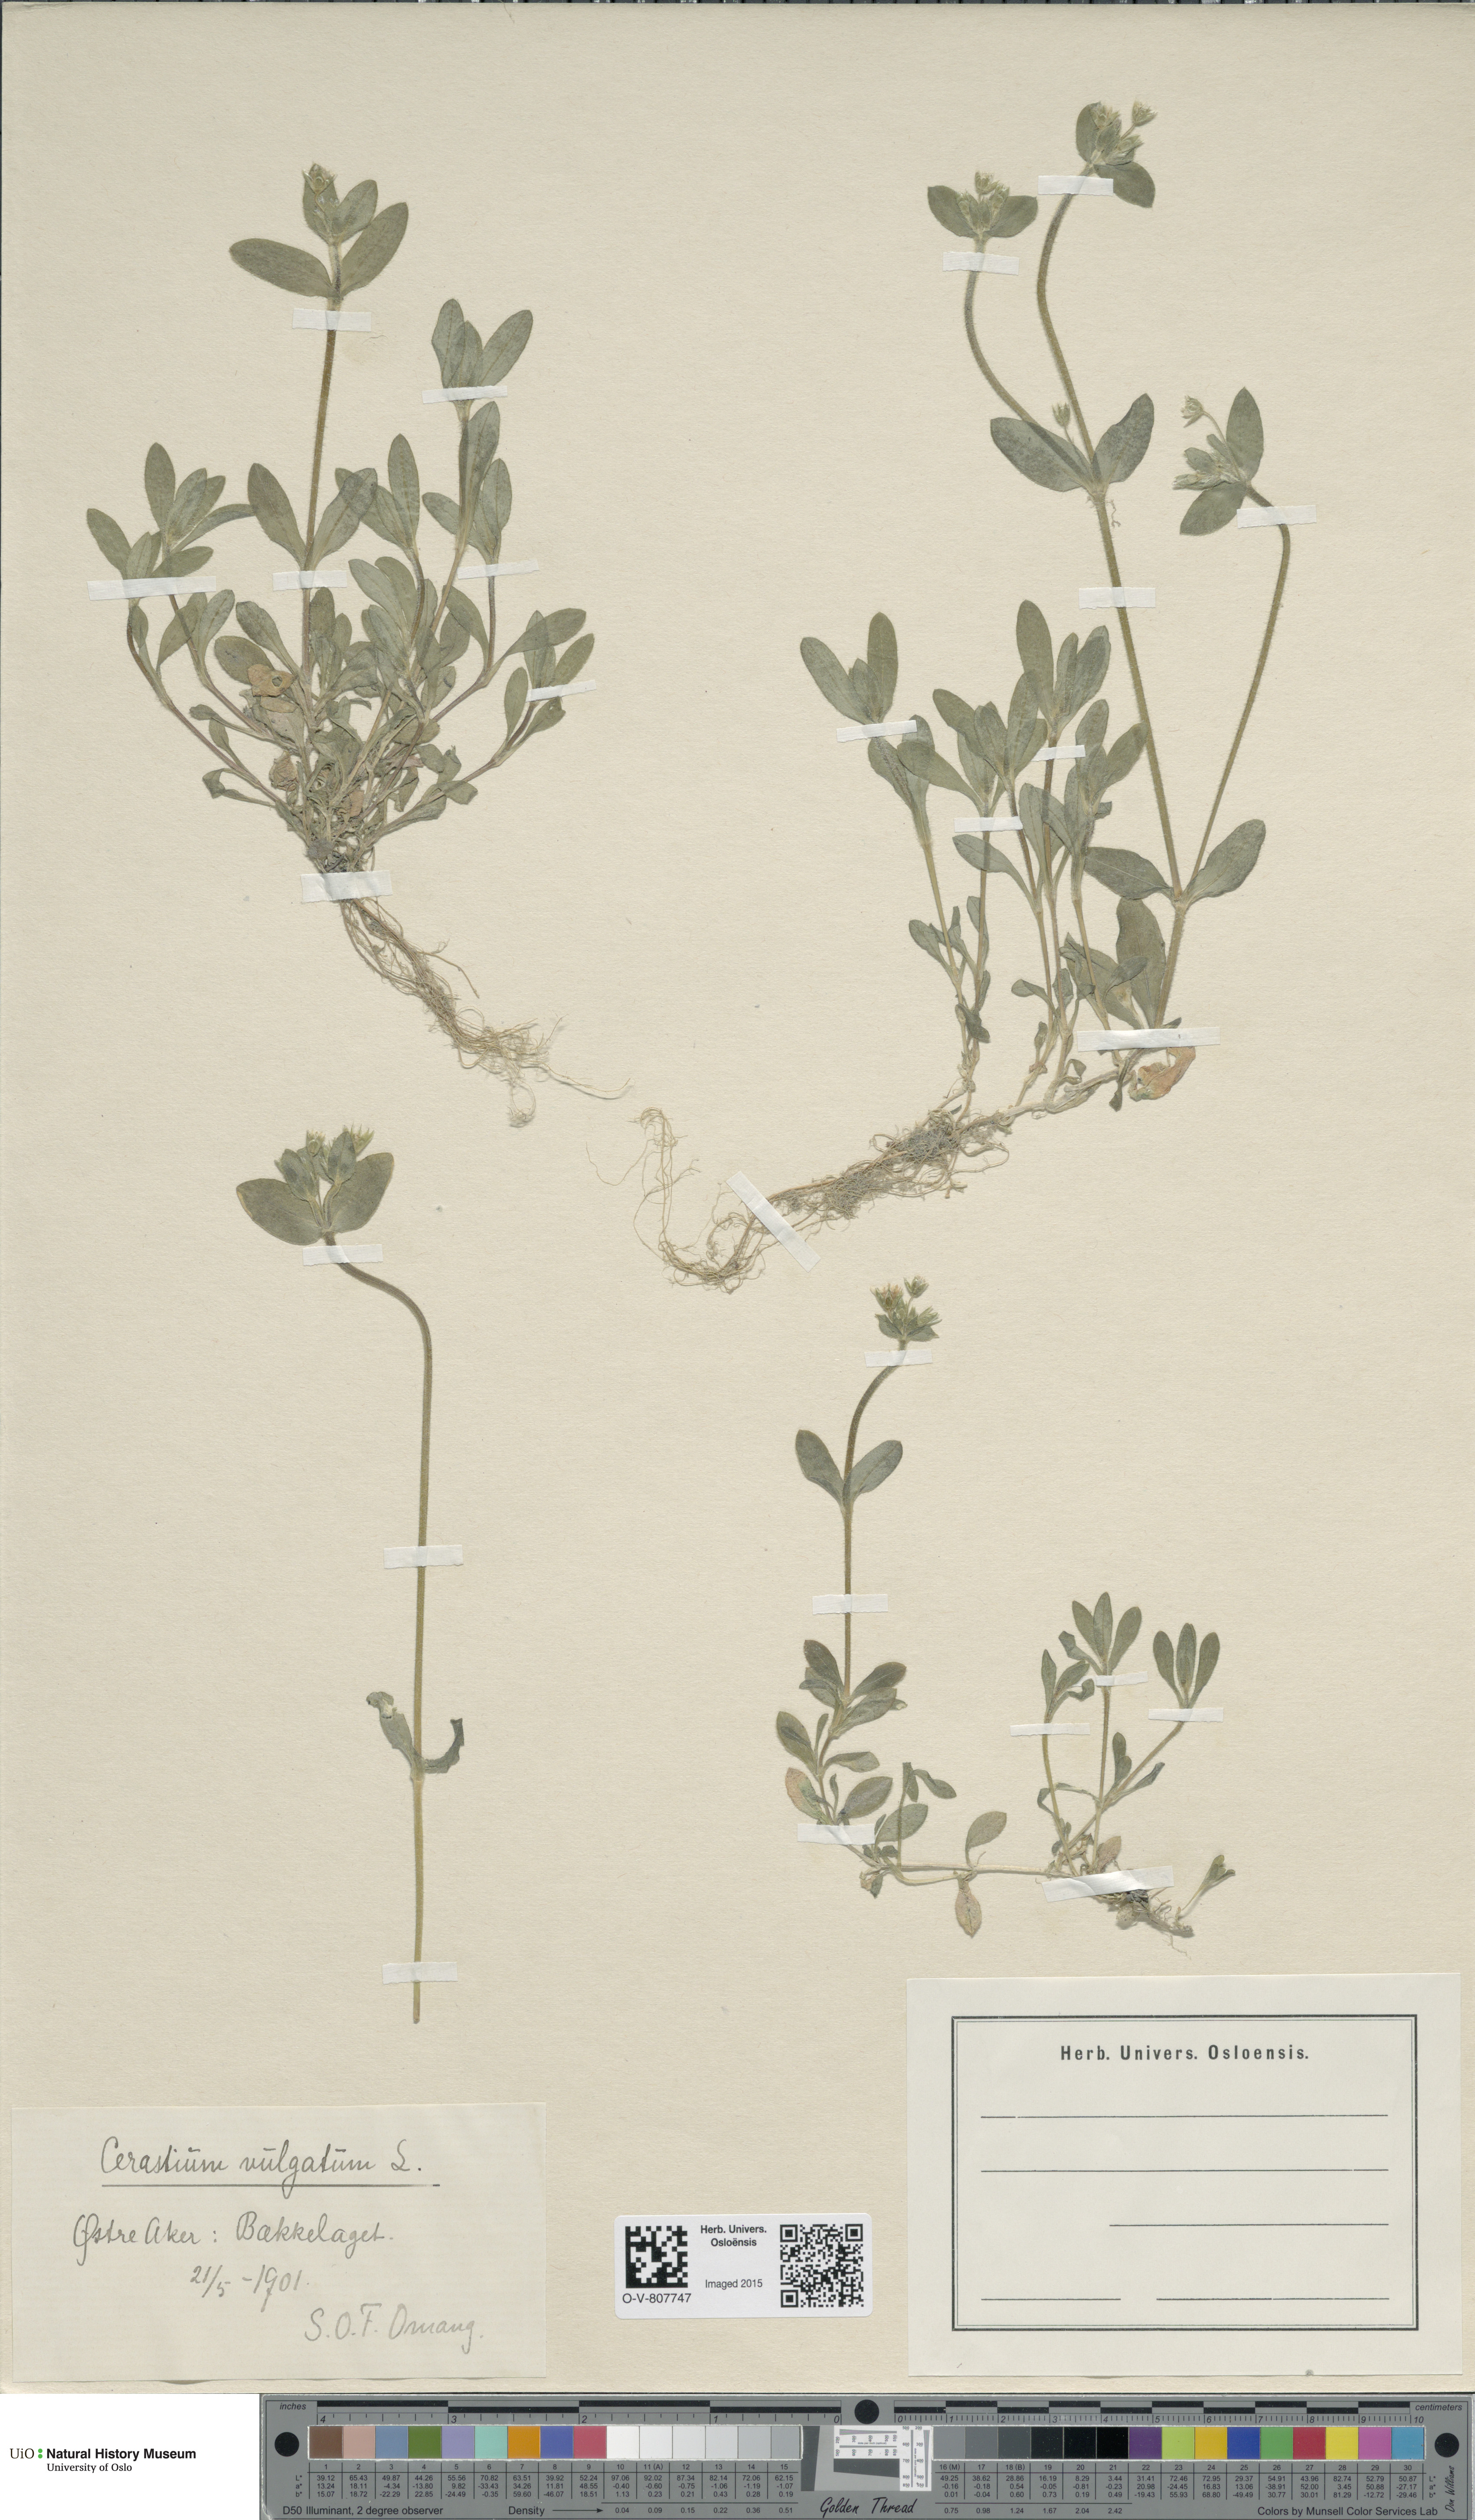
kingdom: Plantae
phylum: Tracheophyta
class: Magnoliopsida
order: Caryophyllales
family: Caryophyllaceae
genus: Cerastium
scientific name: Cerastium holosteoides
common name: Big chickweed
